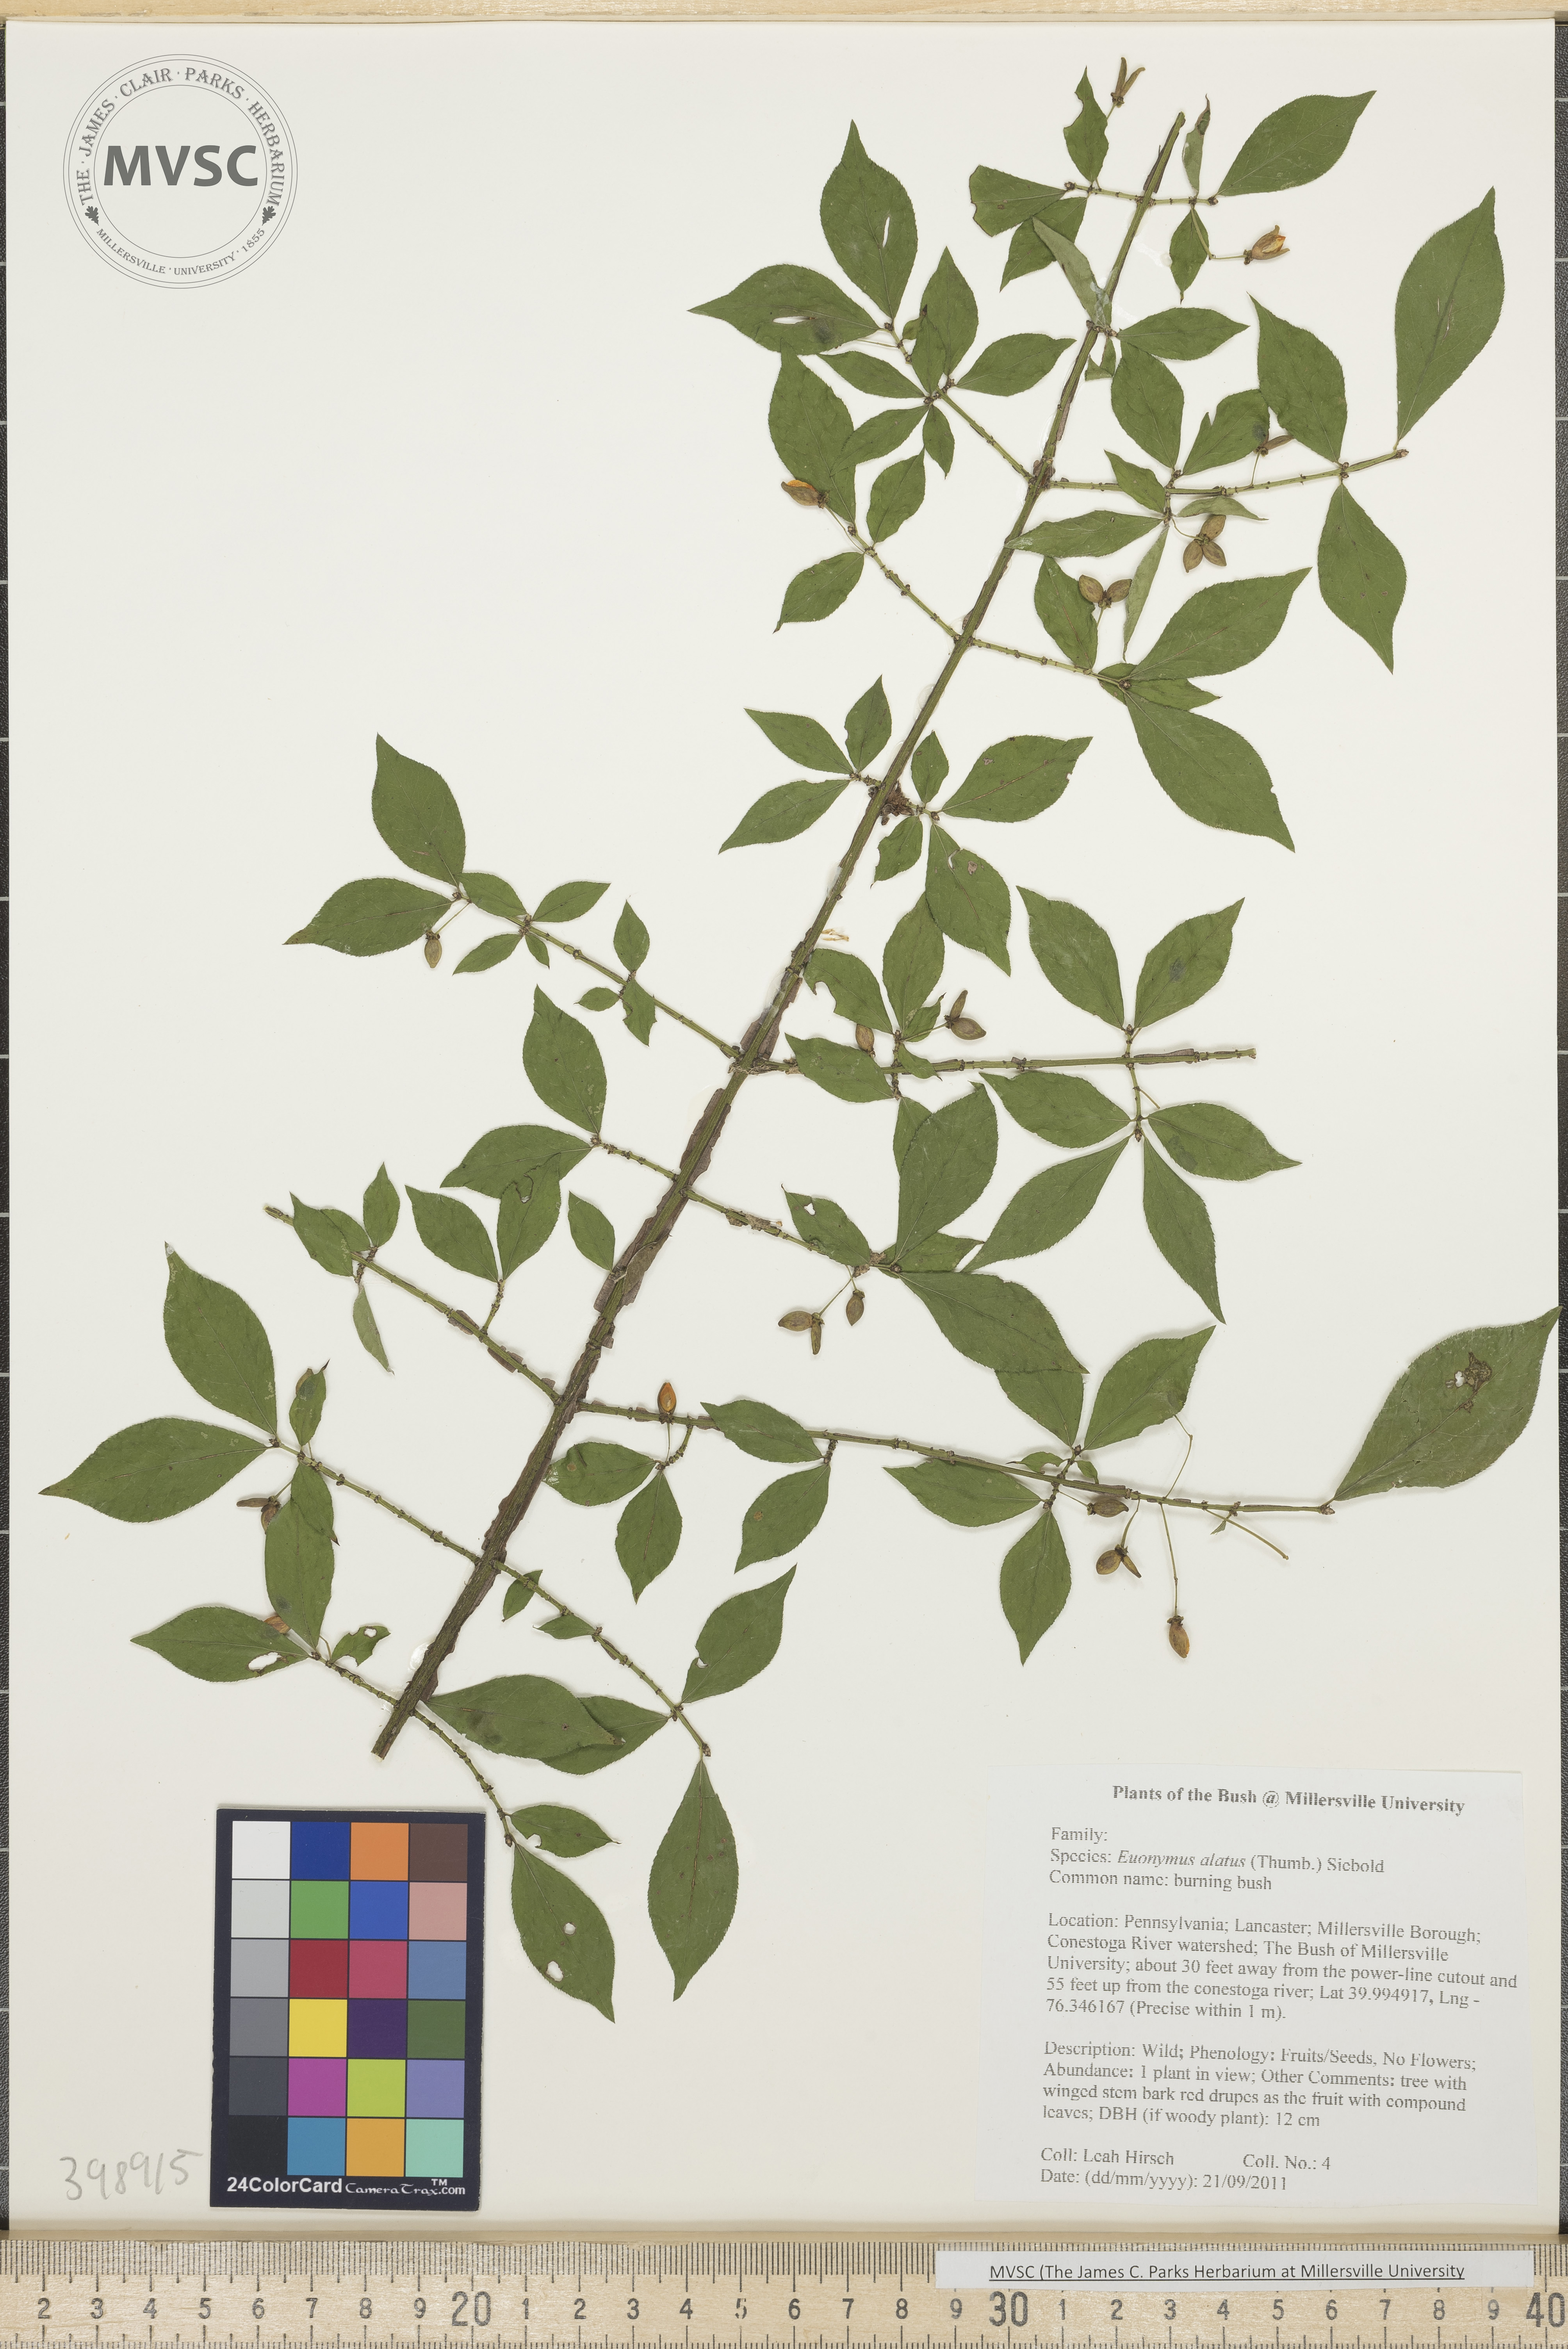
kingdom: Plantae
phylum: Tracheophyta
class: Magnoliopsida
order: Celastrales
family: Celastraceae
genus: Euonymus
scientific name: Euonymus alatus
